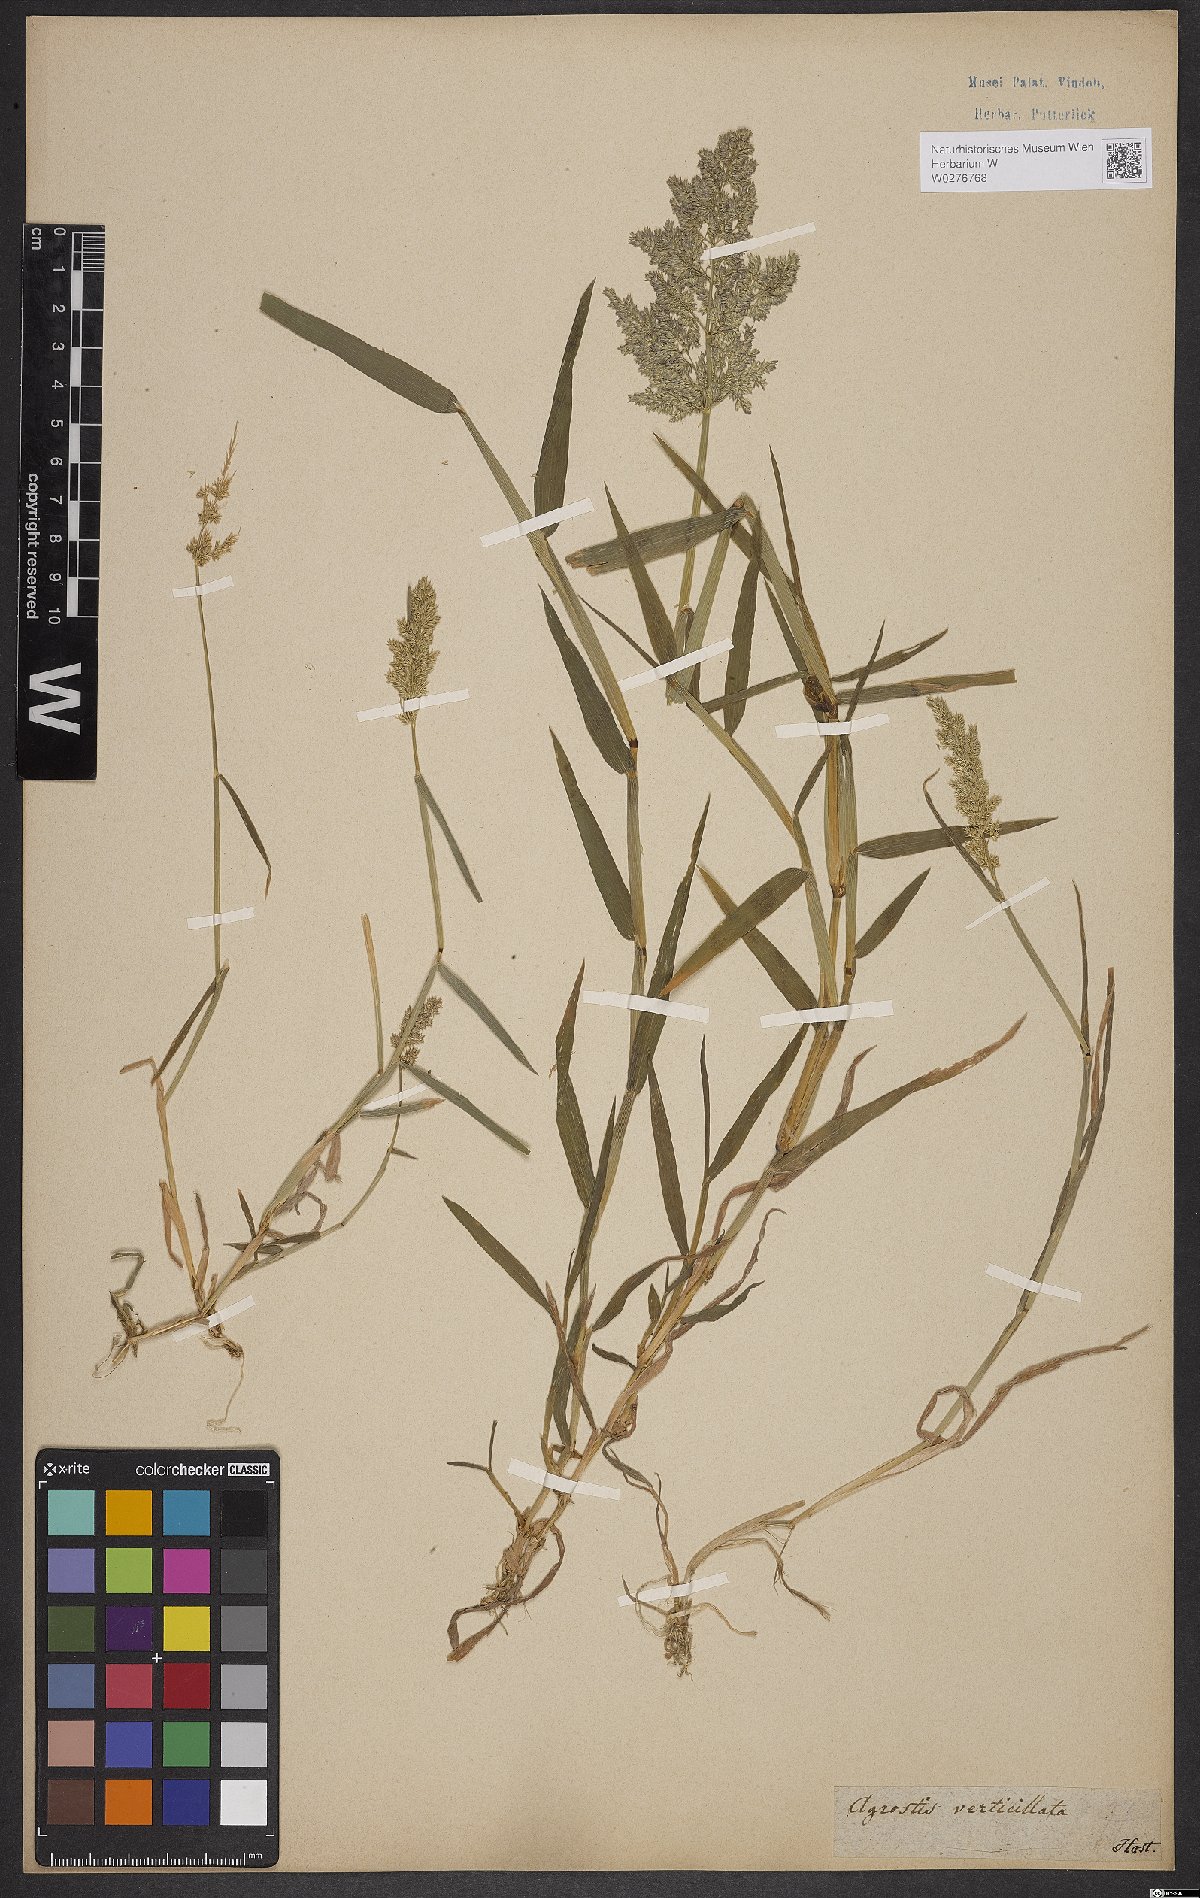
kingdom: Plantae
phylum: Tracheophyta
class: Liliopsida
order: Poales
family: Poaceae
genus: Chrysopogon
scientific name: Chrysopogon zizanioides
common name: False beardgrass
